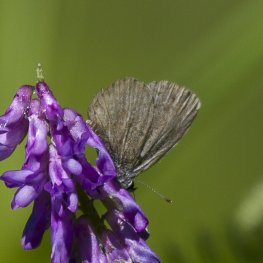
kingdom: Animalia
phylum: Arthropoda
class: Insecta
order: Lepidoptera
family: Lycaenidae
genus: Cyaniris
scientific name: Cyaniris neglecta
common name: Summer Azure
